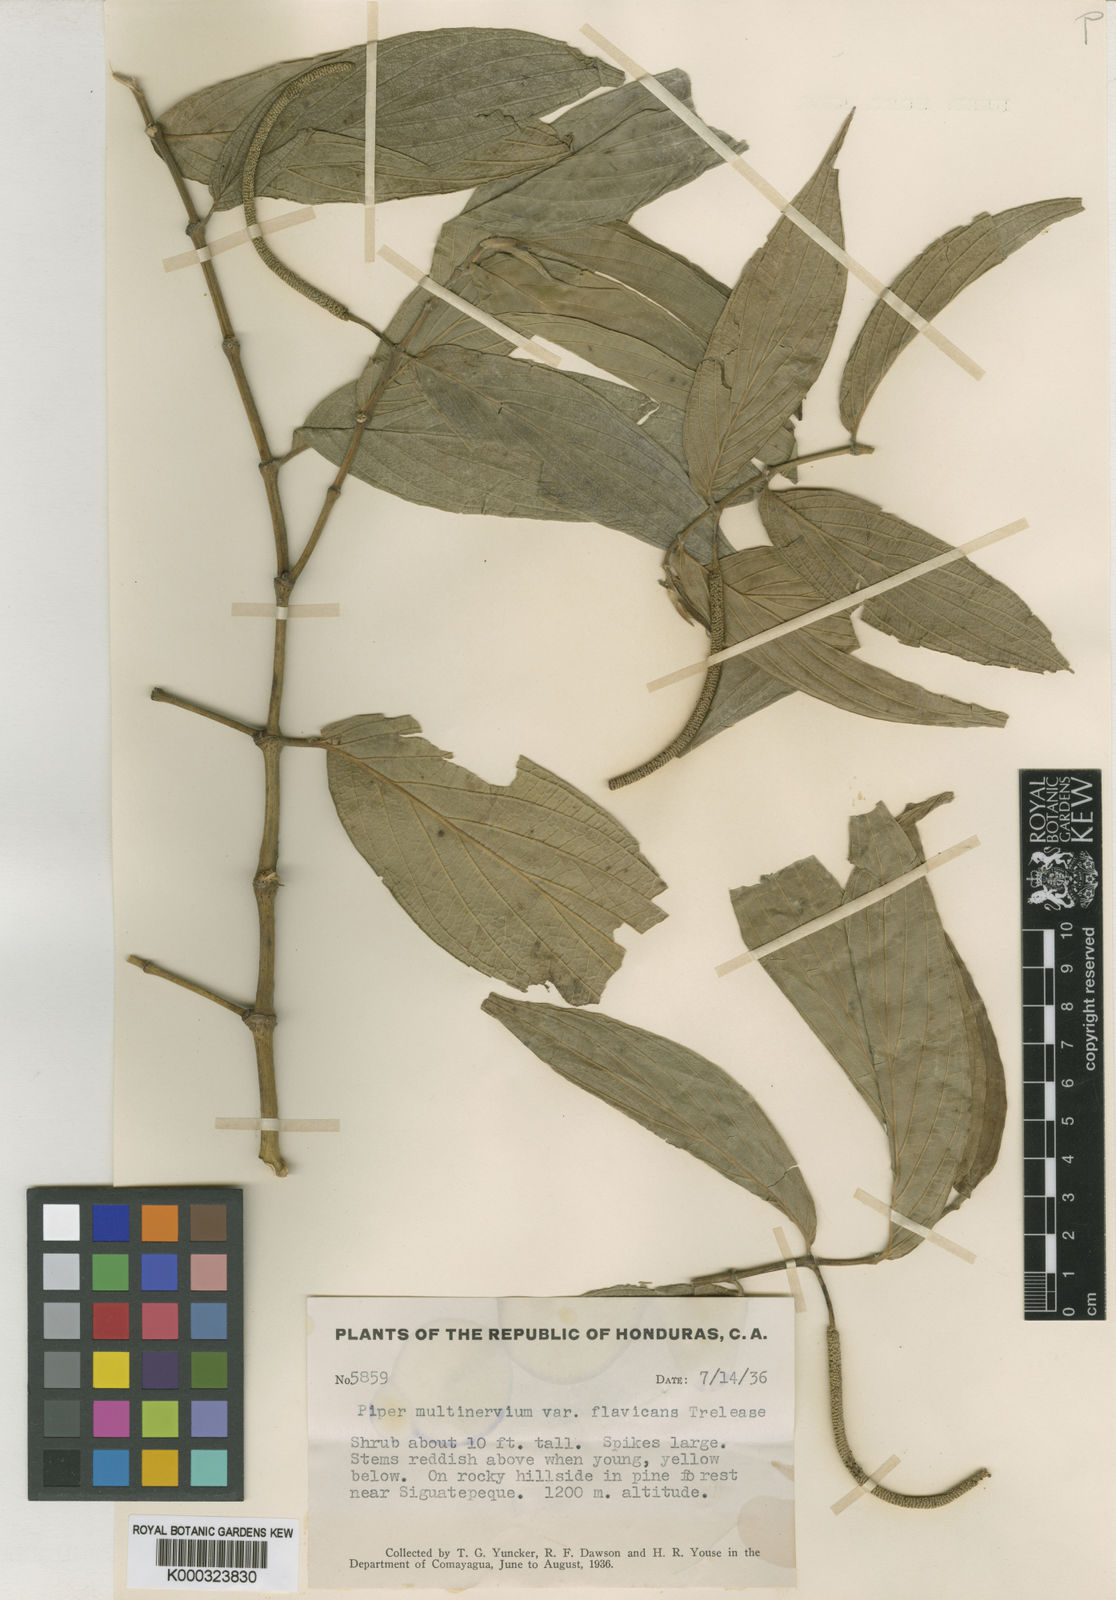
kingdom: Plantae
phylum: Tracheophyta
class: Magnoliopsida
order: Piperales
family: Piperaceae
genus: Piper
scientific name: Piper aduncum
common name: Spiked pepper
